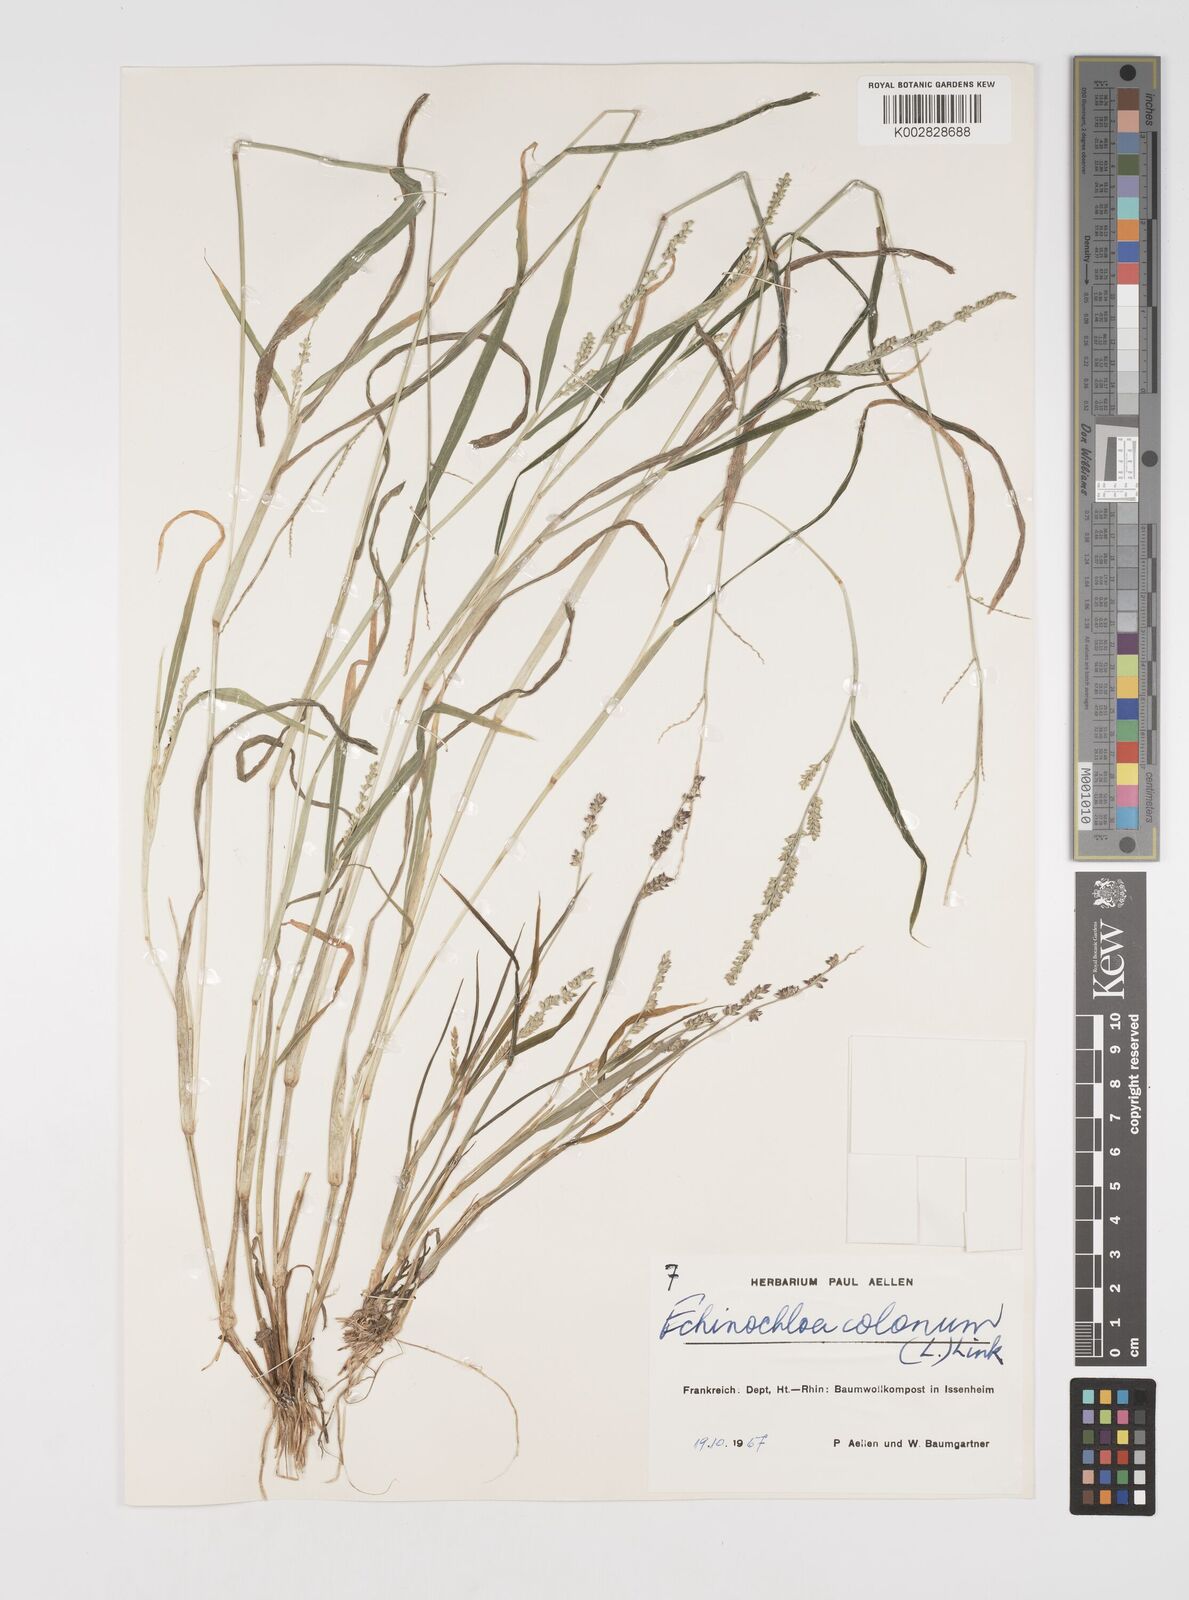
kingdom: Plantae
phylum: Tracheophyta
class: Liliopsida
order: Poales
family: Poaceae
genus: Echinochloa
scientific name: Echinochloa colonum
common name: Jungle rice
